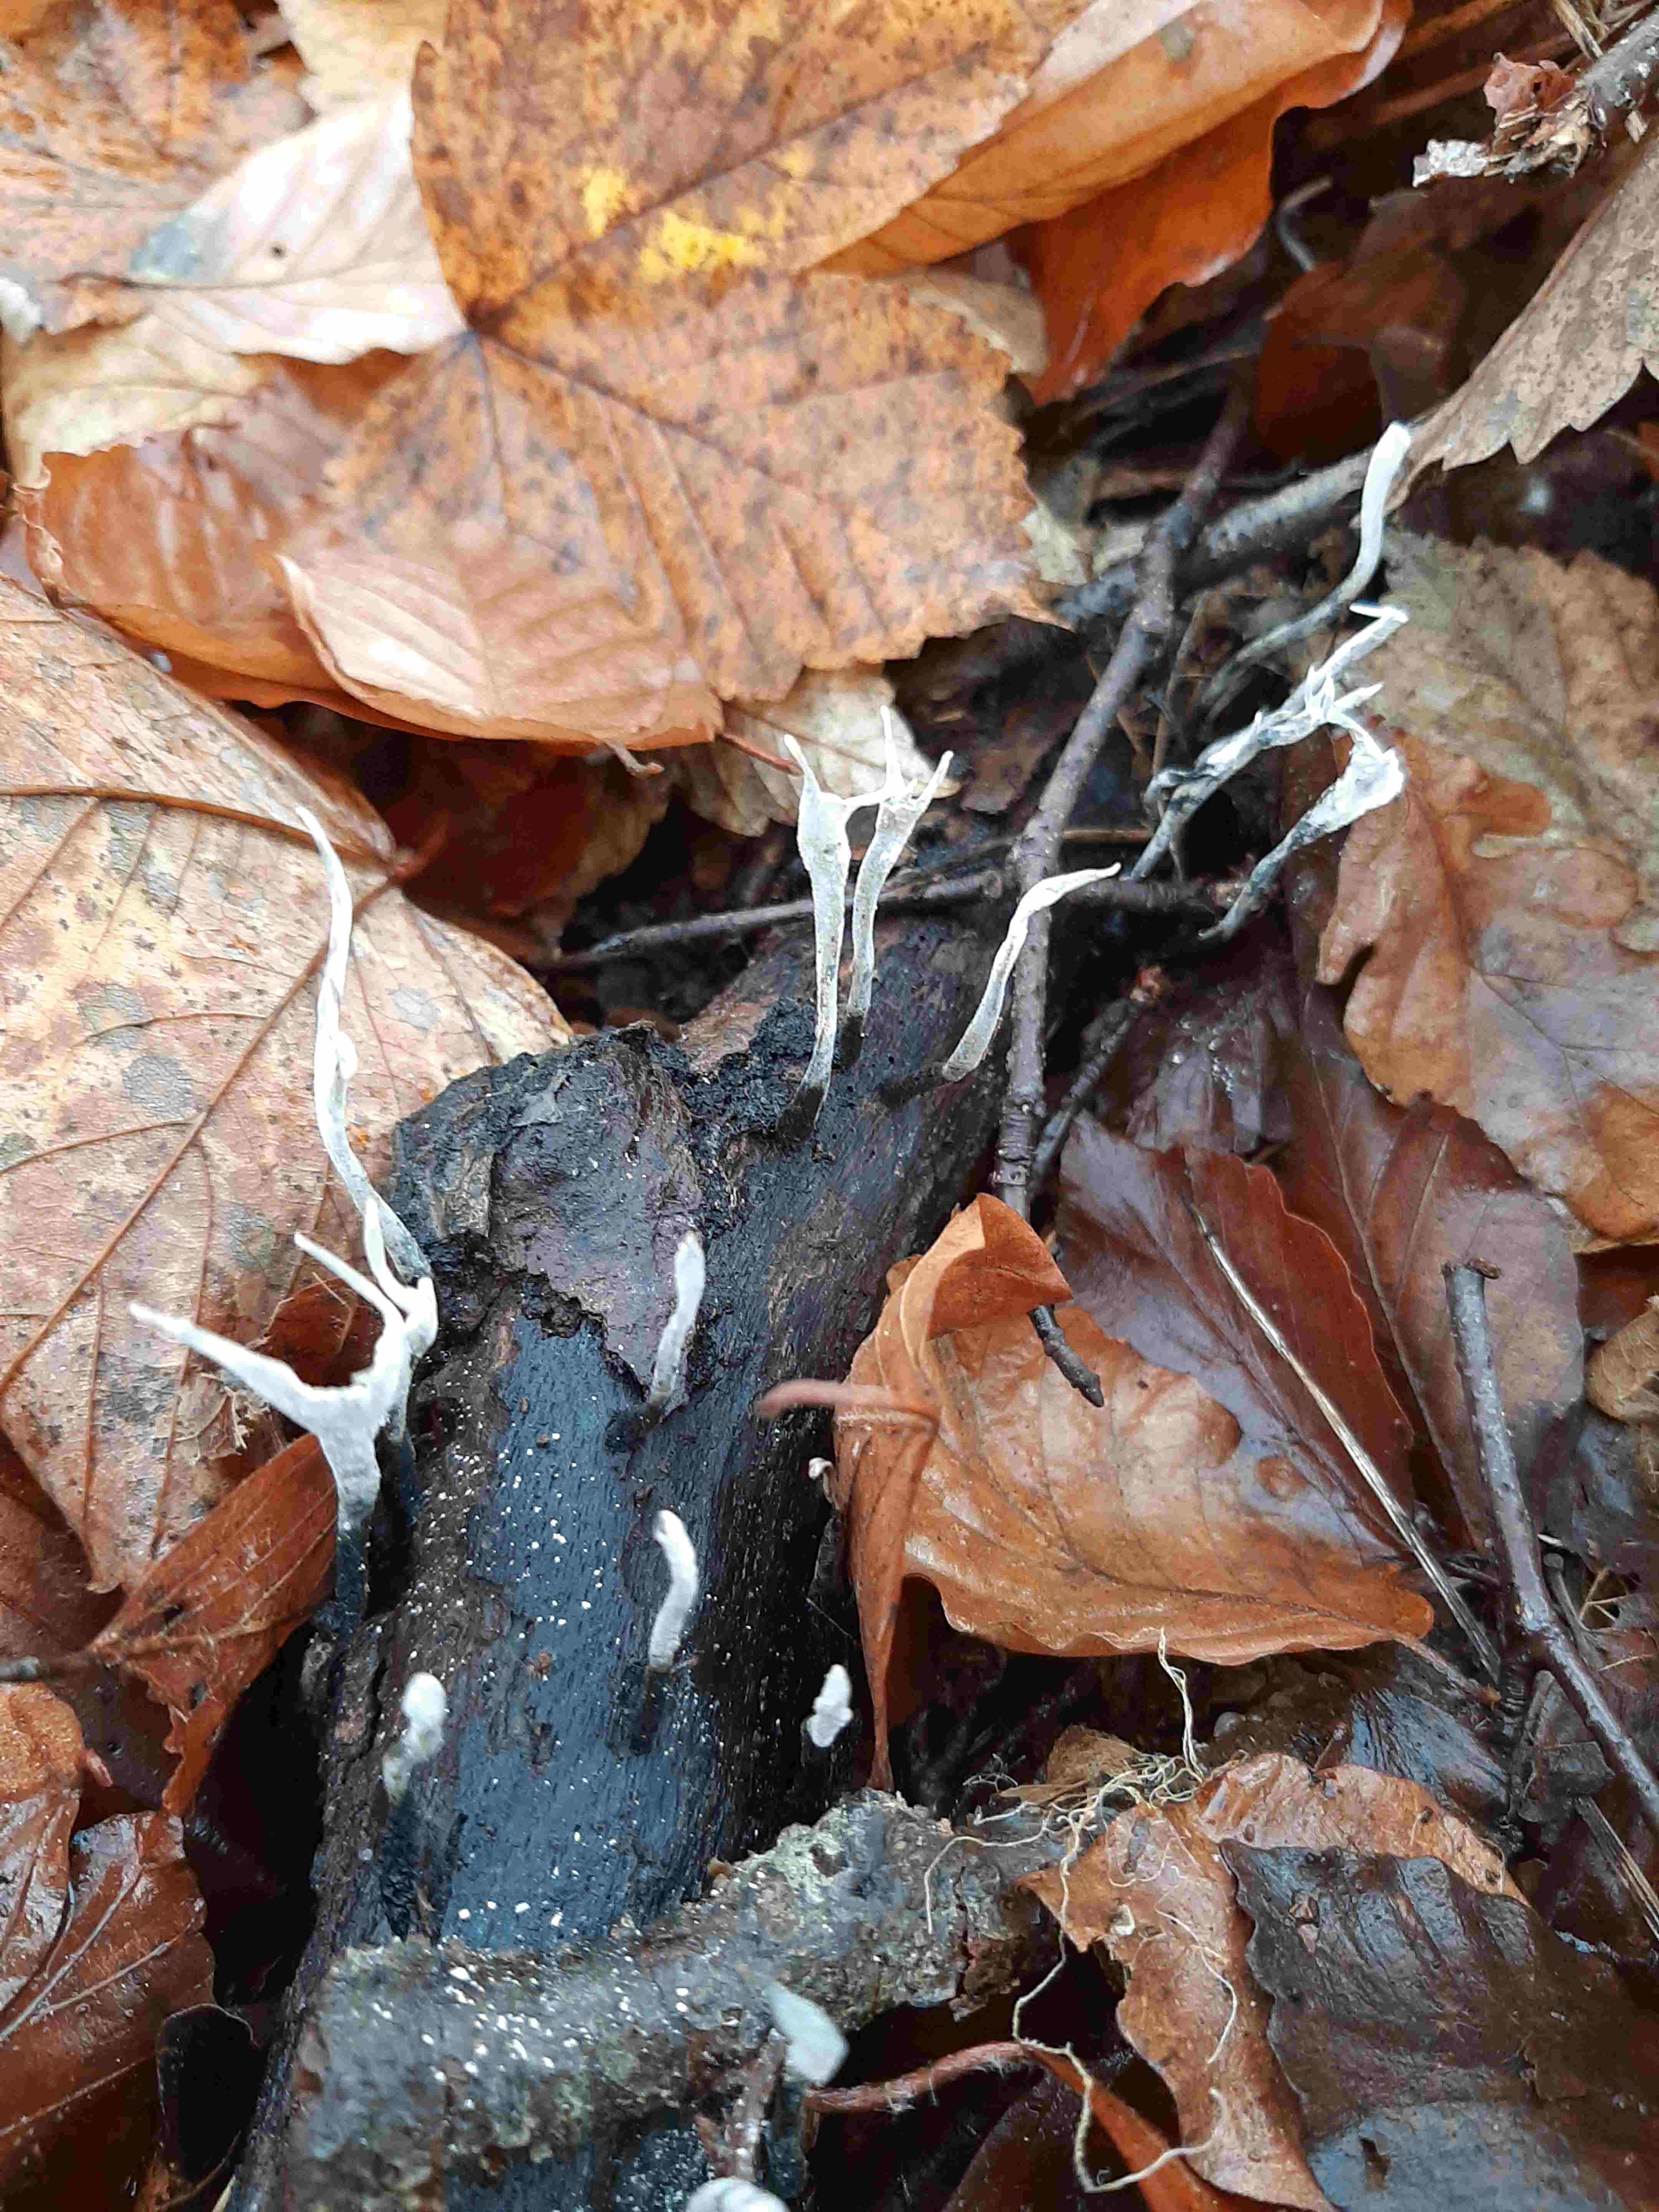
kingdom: Fungi
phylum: Ascomycota
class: Sordariomycetes
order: Xylariales
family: Xylariaceae
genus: Xylaria
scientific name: Xylaria hypoxylon
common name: grenet stødsvamp
